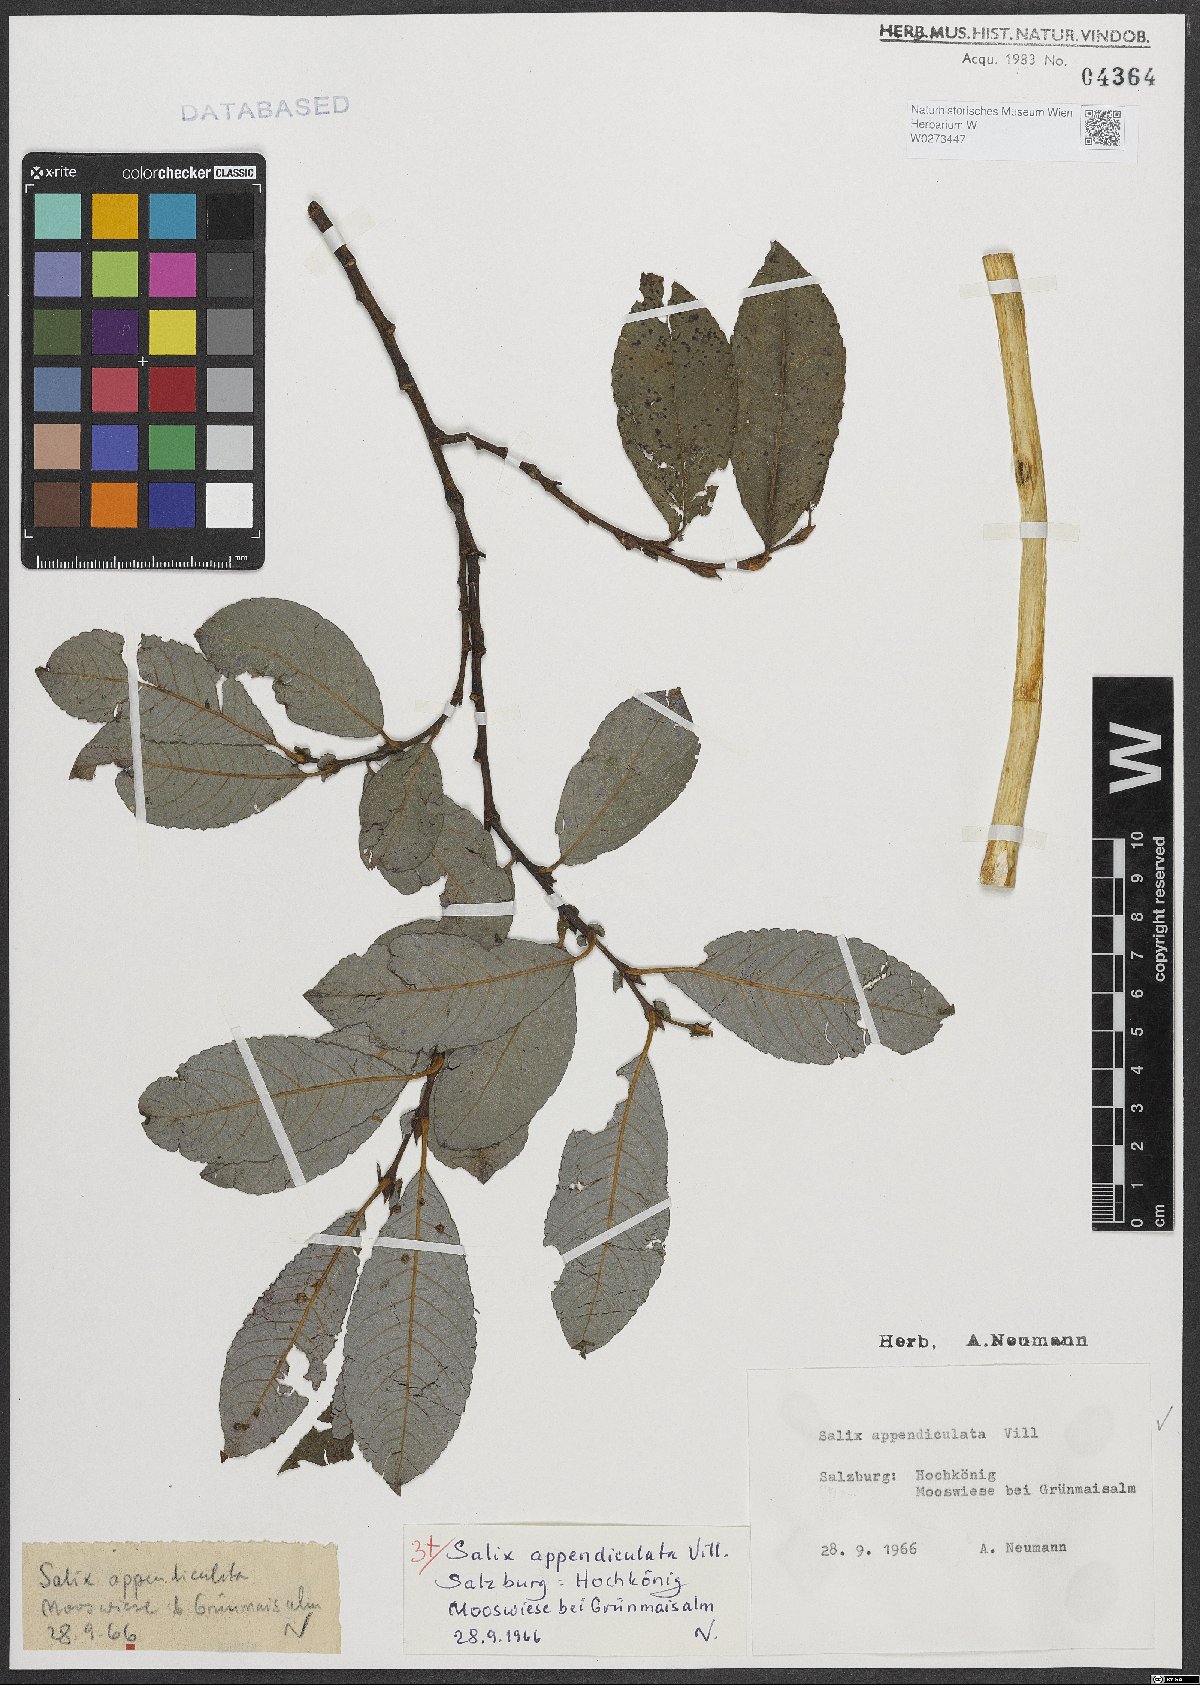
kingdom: Plantae
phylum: Tracheophyta
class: Magnoliopsida
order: Malpighiales
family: Salicaceae
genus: Salix
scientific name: Salix appendiculata
